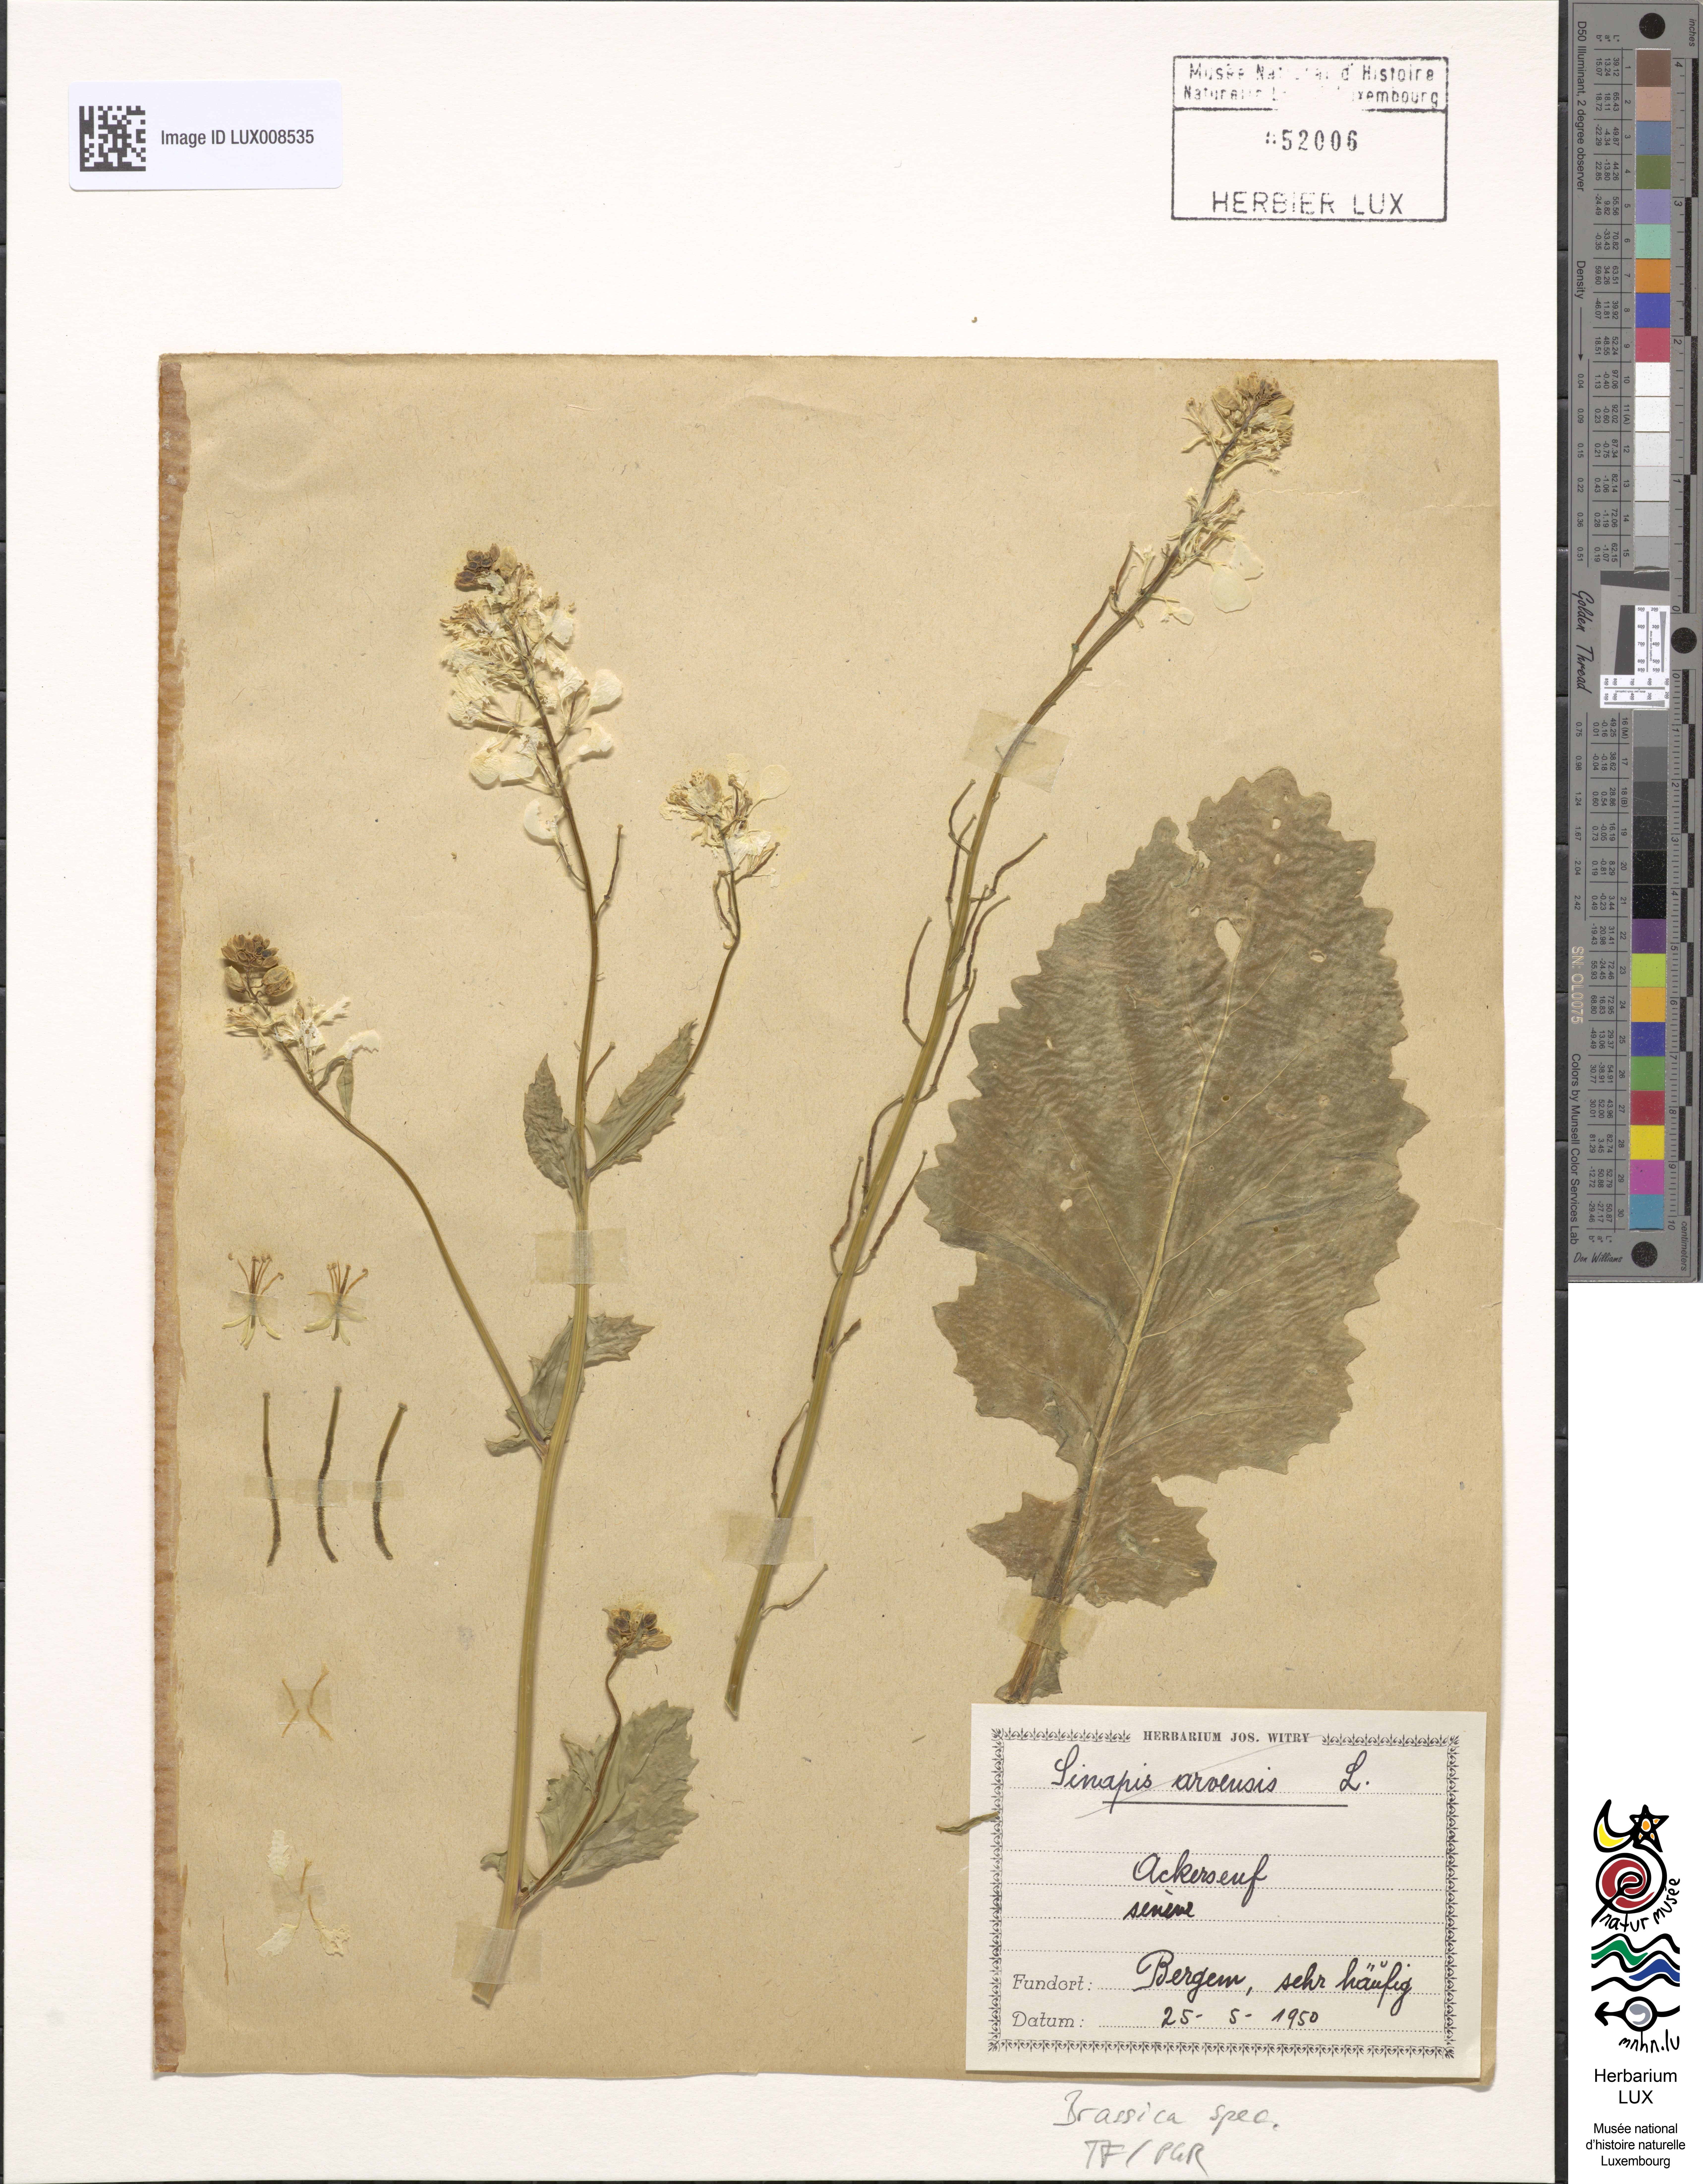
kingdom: Plantae
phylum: Tracheophyta
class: Magnoliopsida
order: Brassicales
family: Brassicaceae
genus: Brassica
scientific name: Brassica
